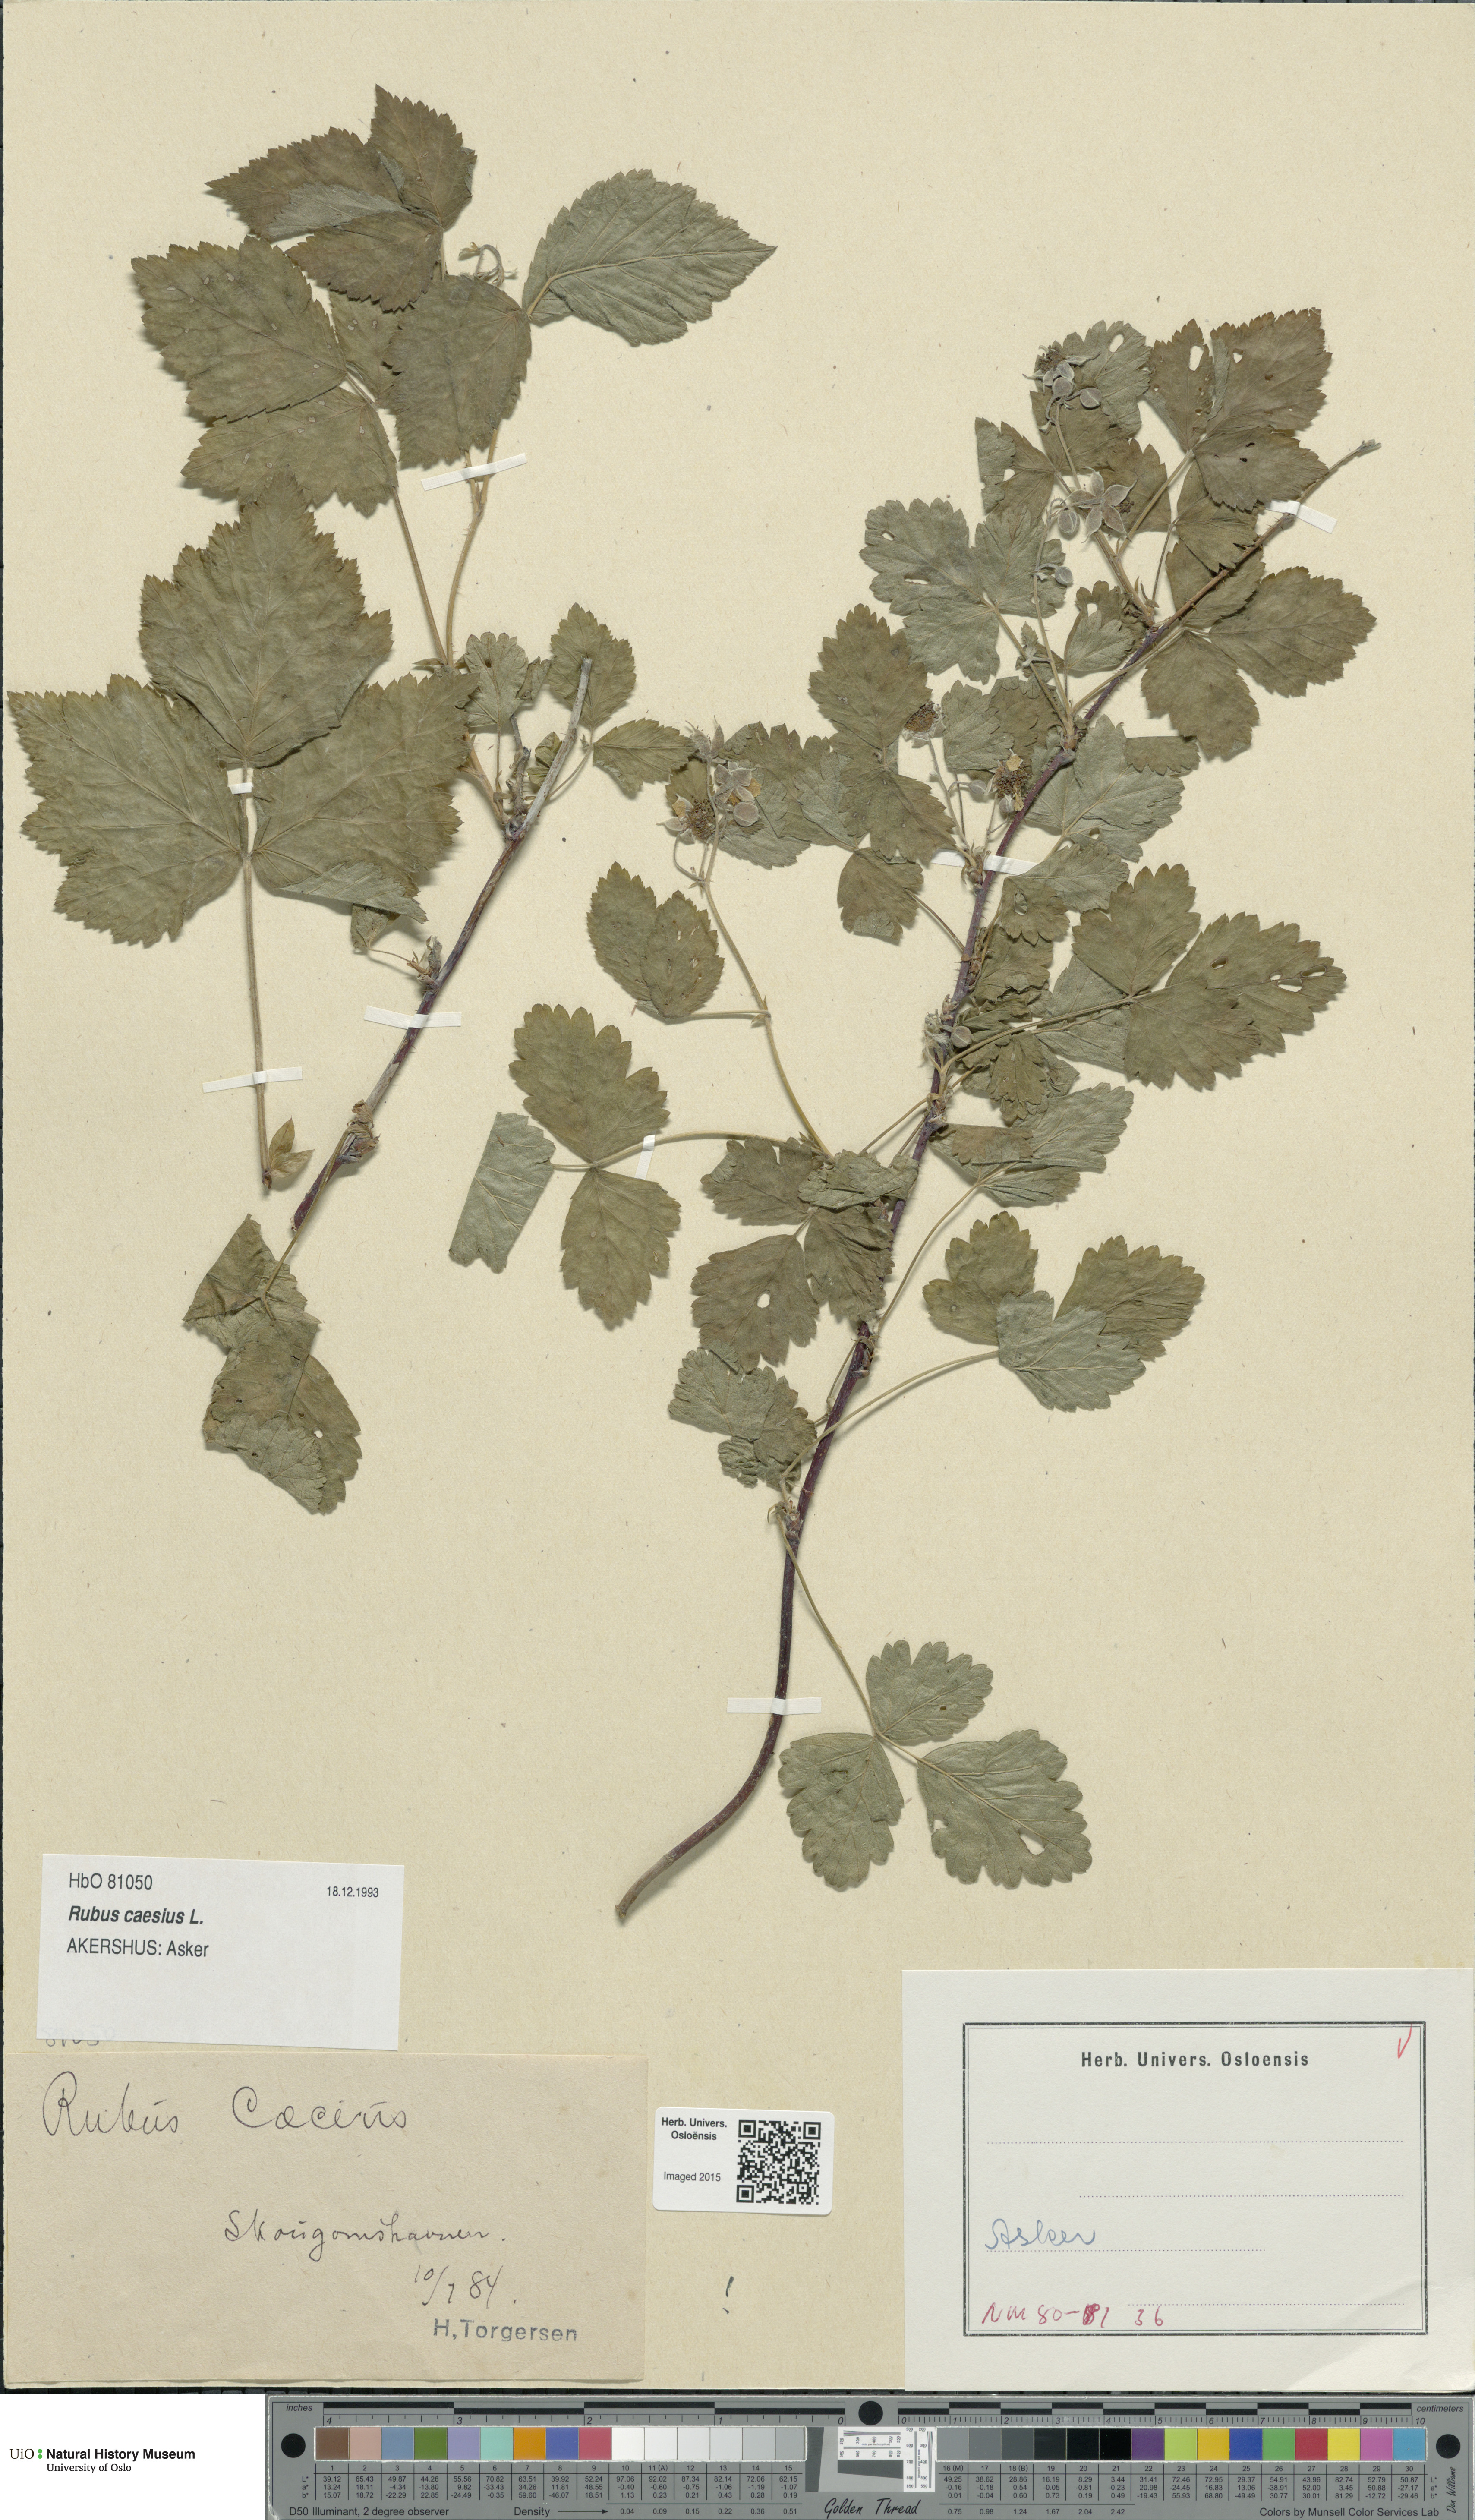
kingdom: Plantae
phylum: Tracheophyta
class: Magnoliopsida
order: Rosales
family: Rosaceae
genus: Rubus
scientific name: Rubus caesius
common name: Dewberry
